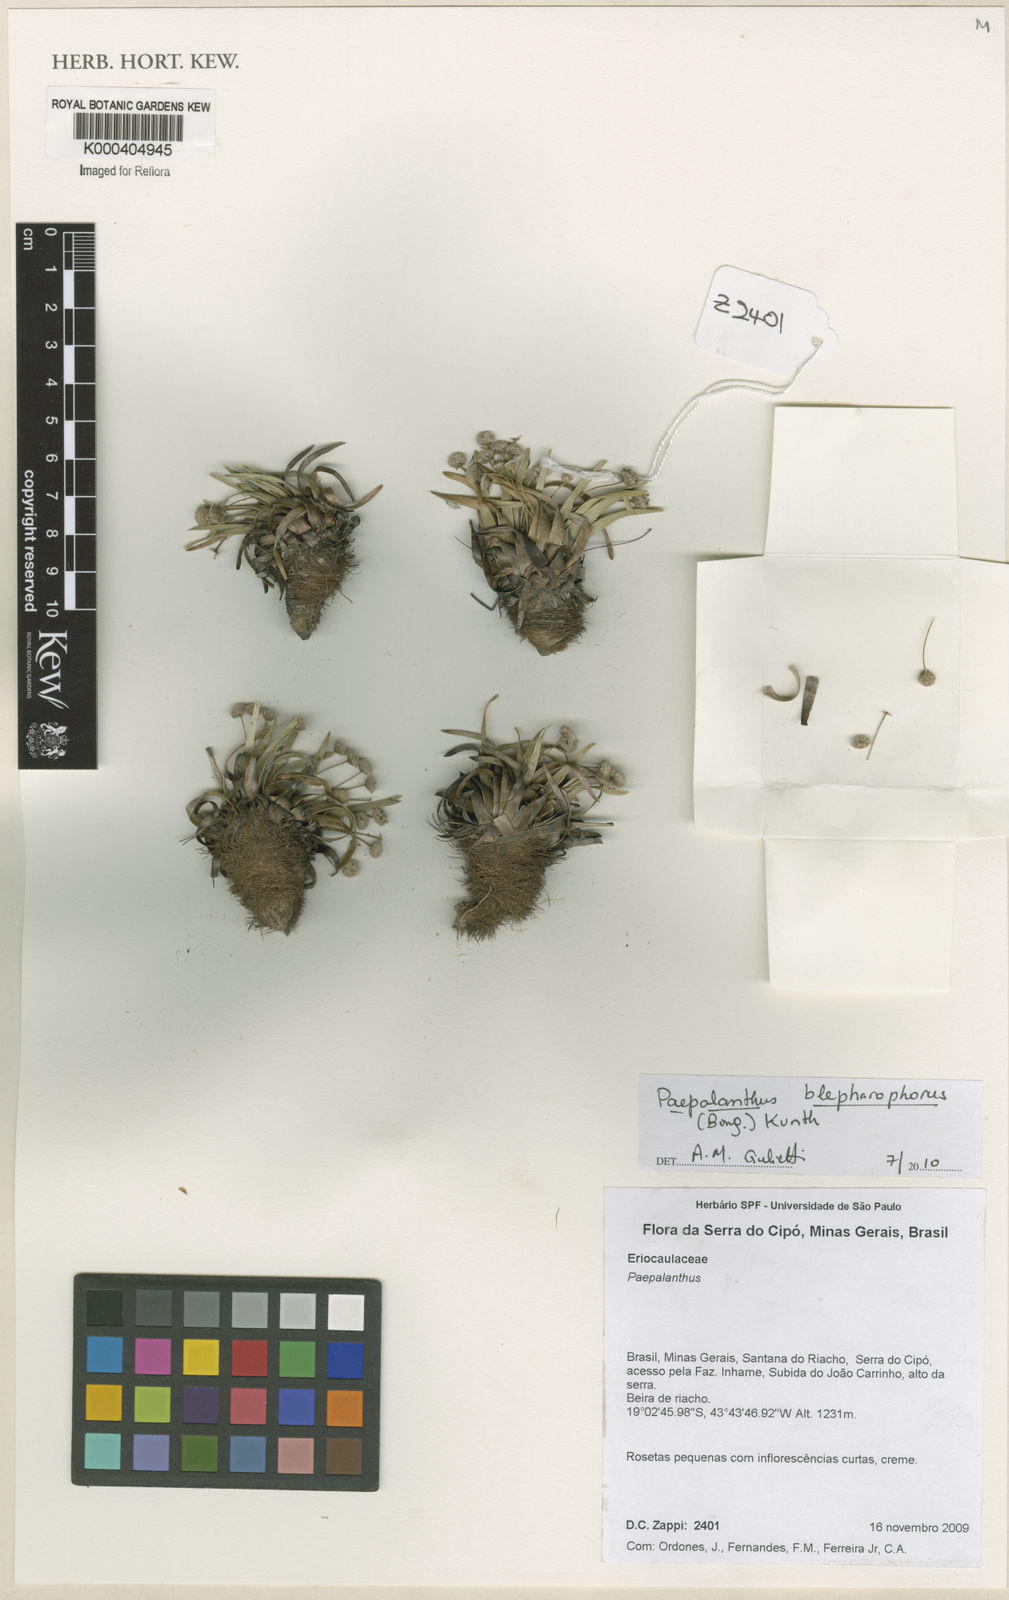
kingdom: Plantae
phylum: Tracheophyta
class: Liliopsida
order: Poales
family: Eriocaulaceae
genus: Paepalanthus
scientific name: Paepalanthus blepharophorus
